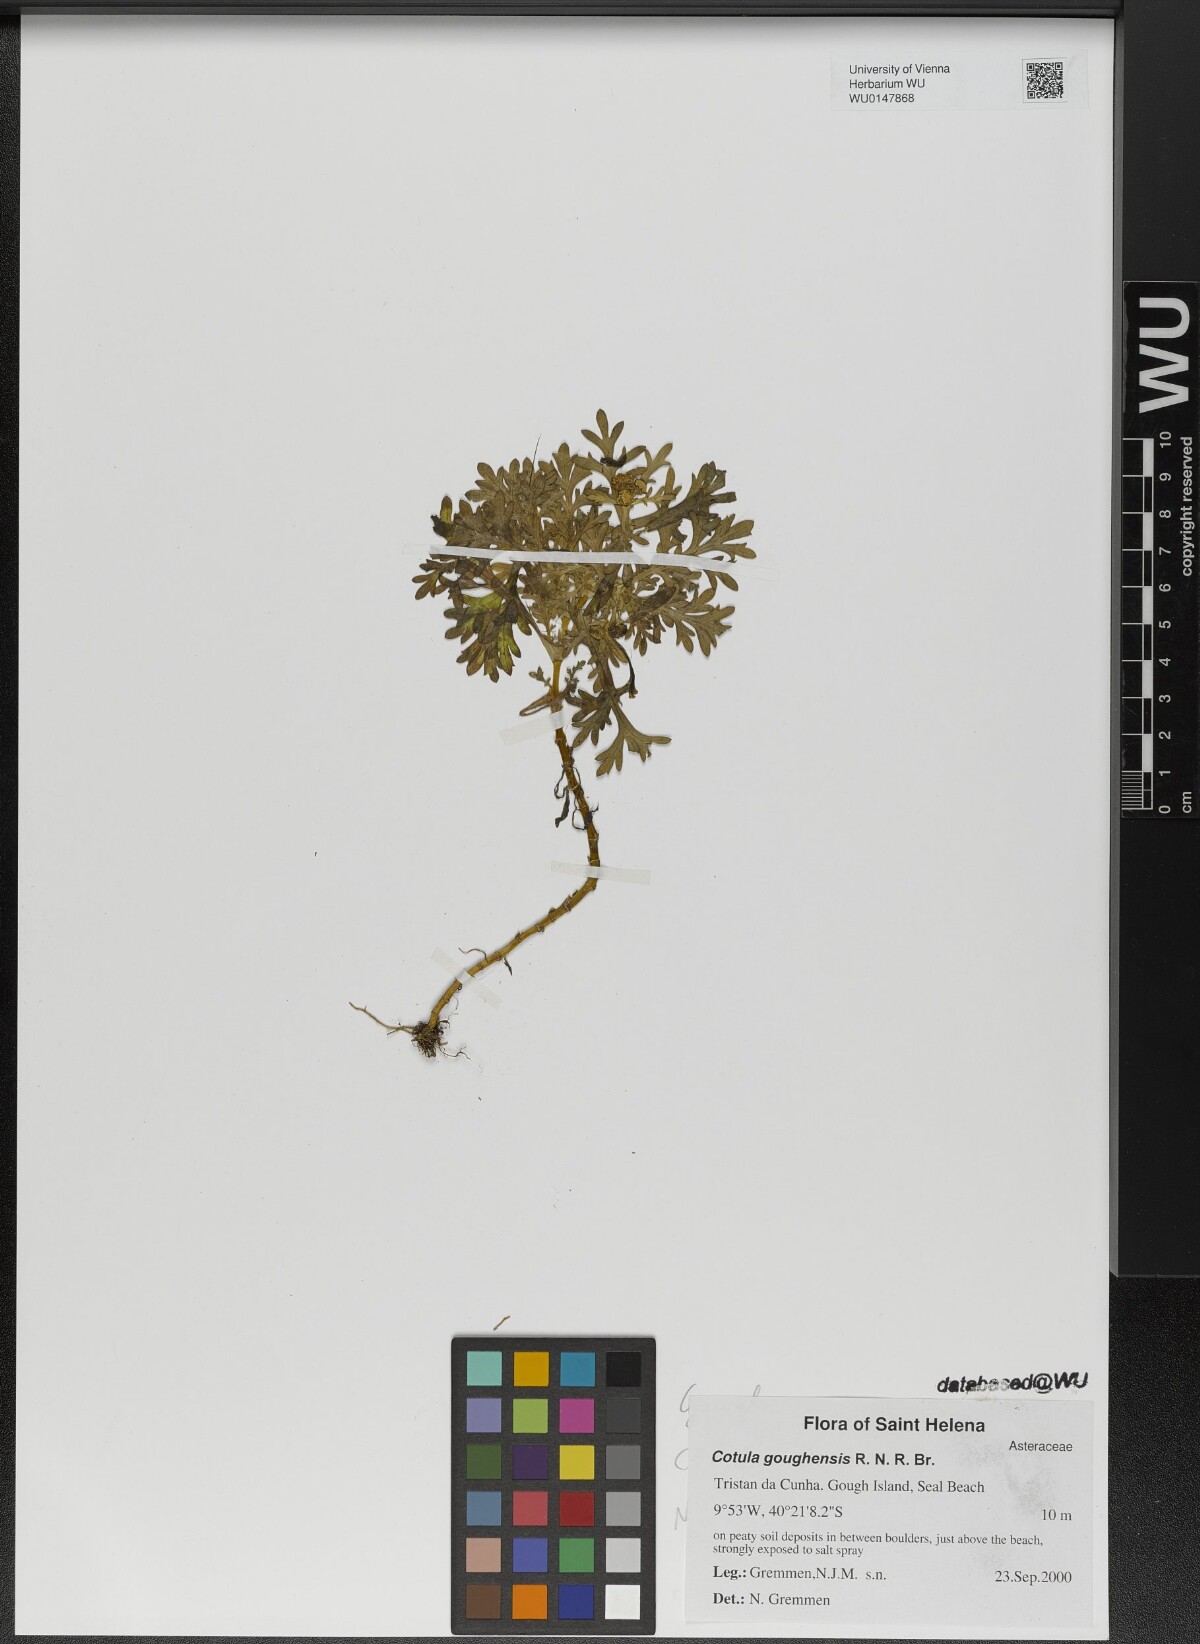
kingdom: Plantae
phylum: Tracheophyta
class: Magnoliopsida
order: Asterales
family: Asteraceae
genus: Cotula
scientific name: Cotula goughensis
